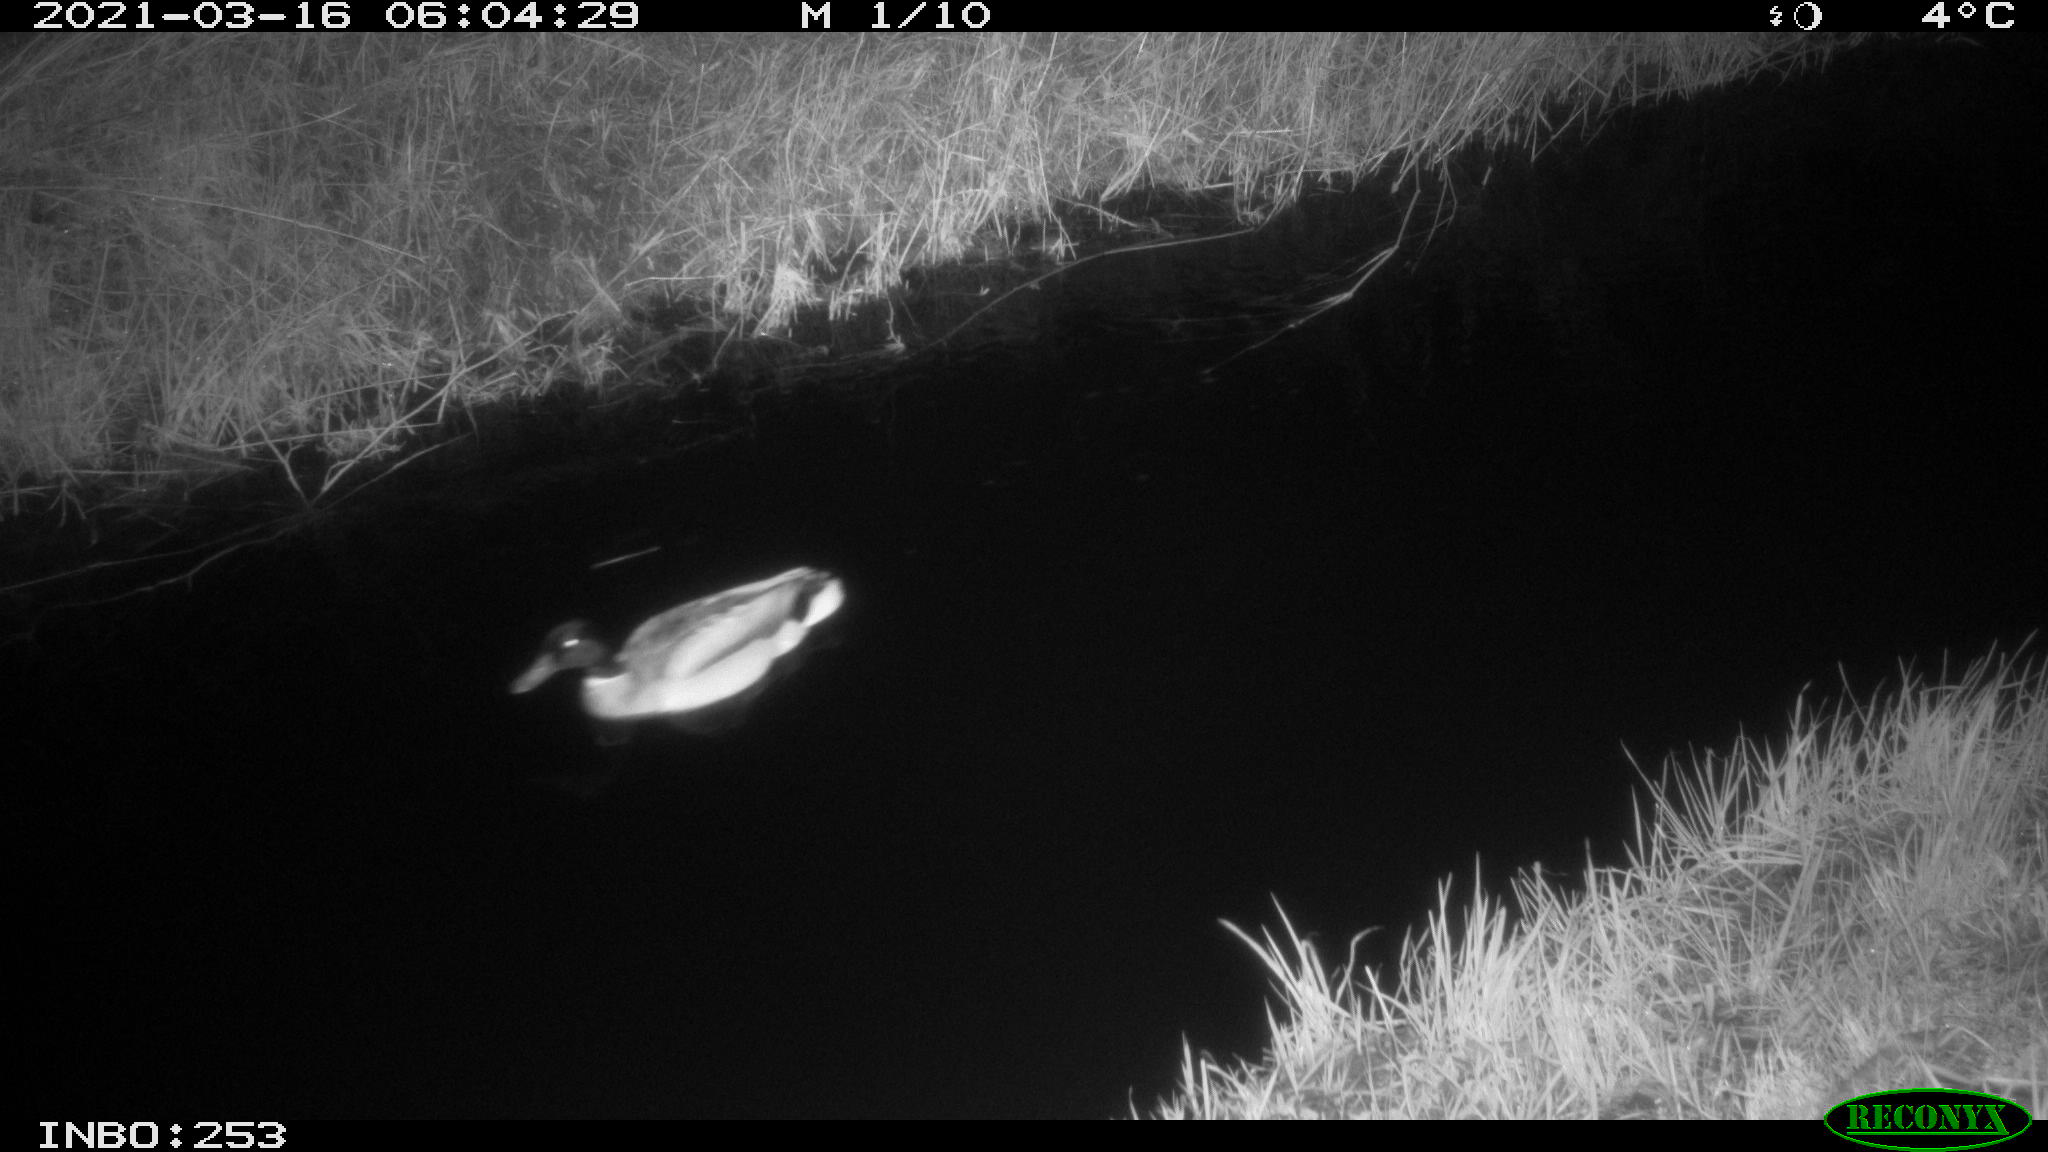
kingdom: Animalia
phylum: Chordata
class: Aves
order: Anseriformes
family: Anatidae
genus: Anas
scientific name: Anas platyrhynchos
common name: Mallard
